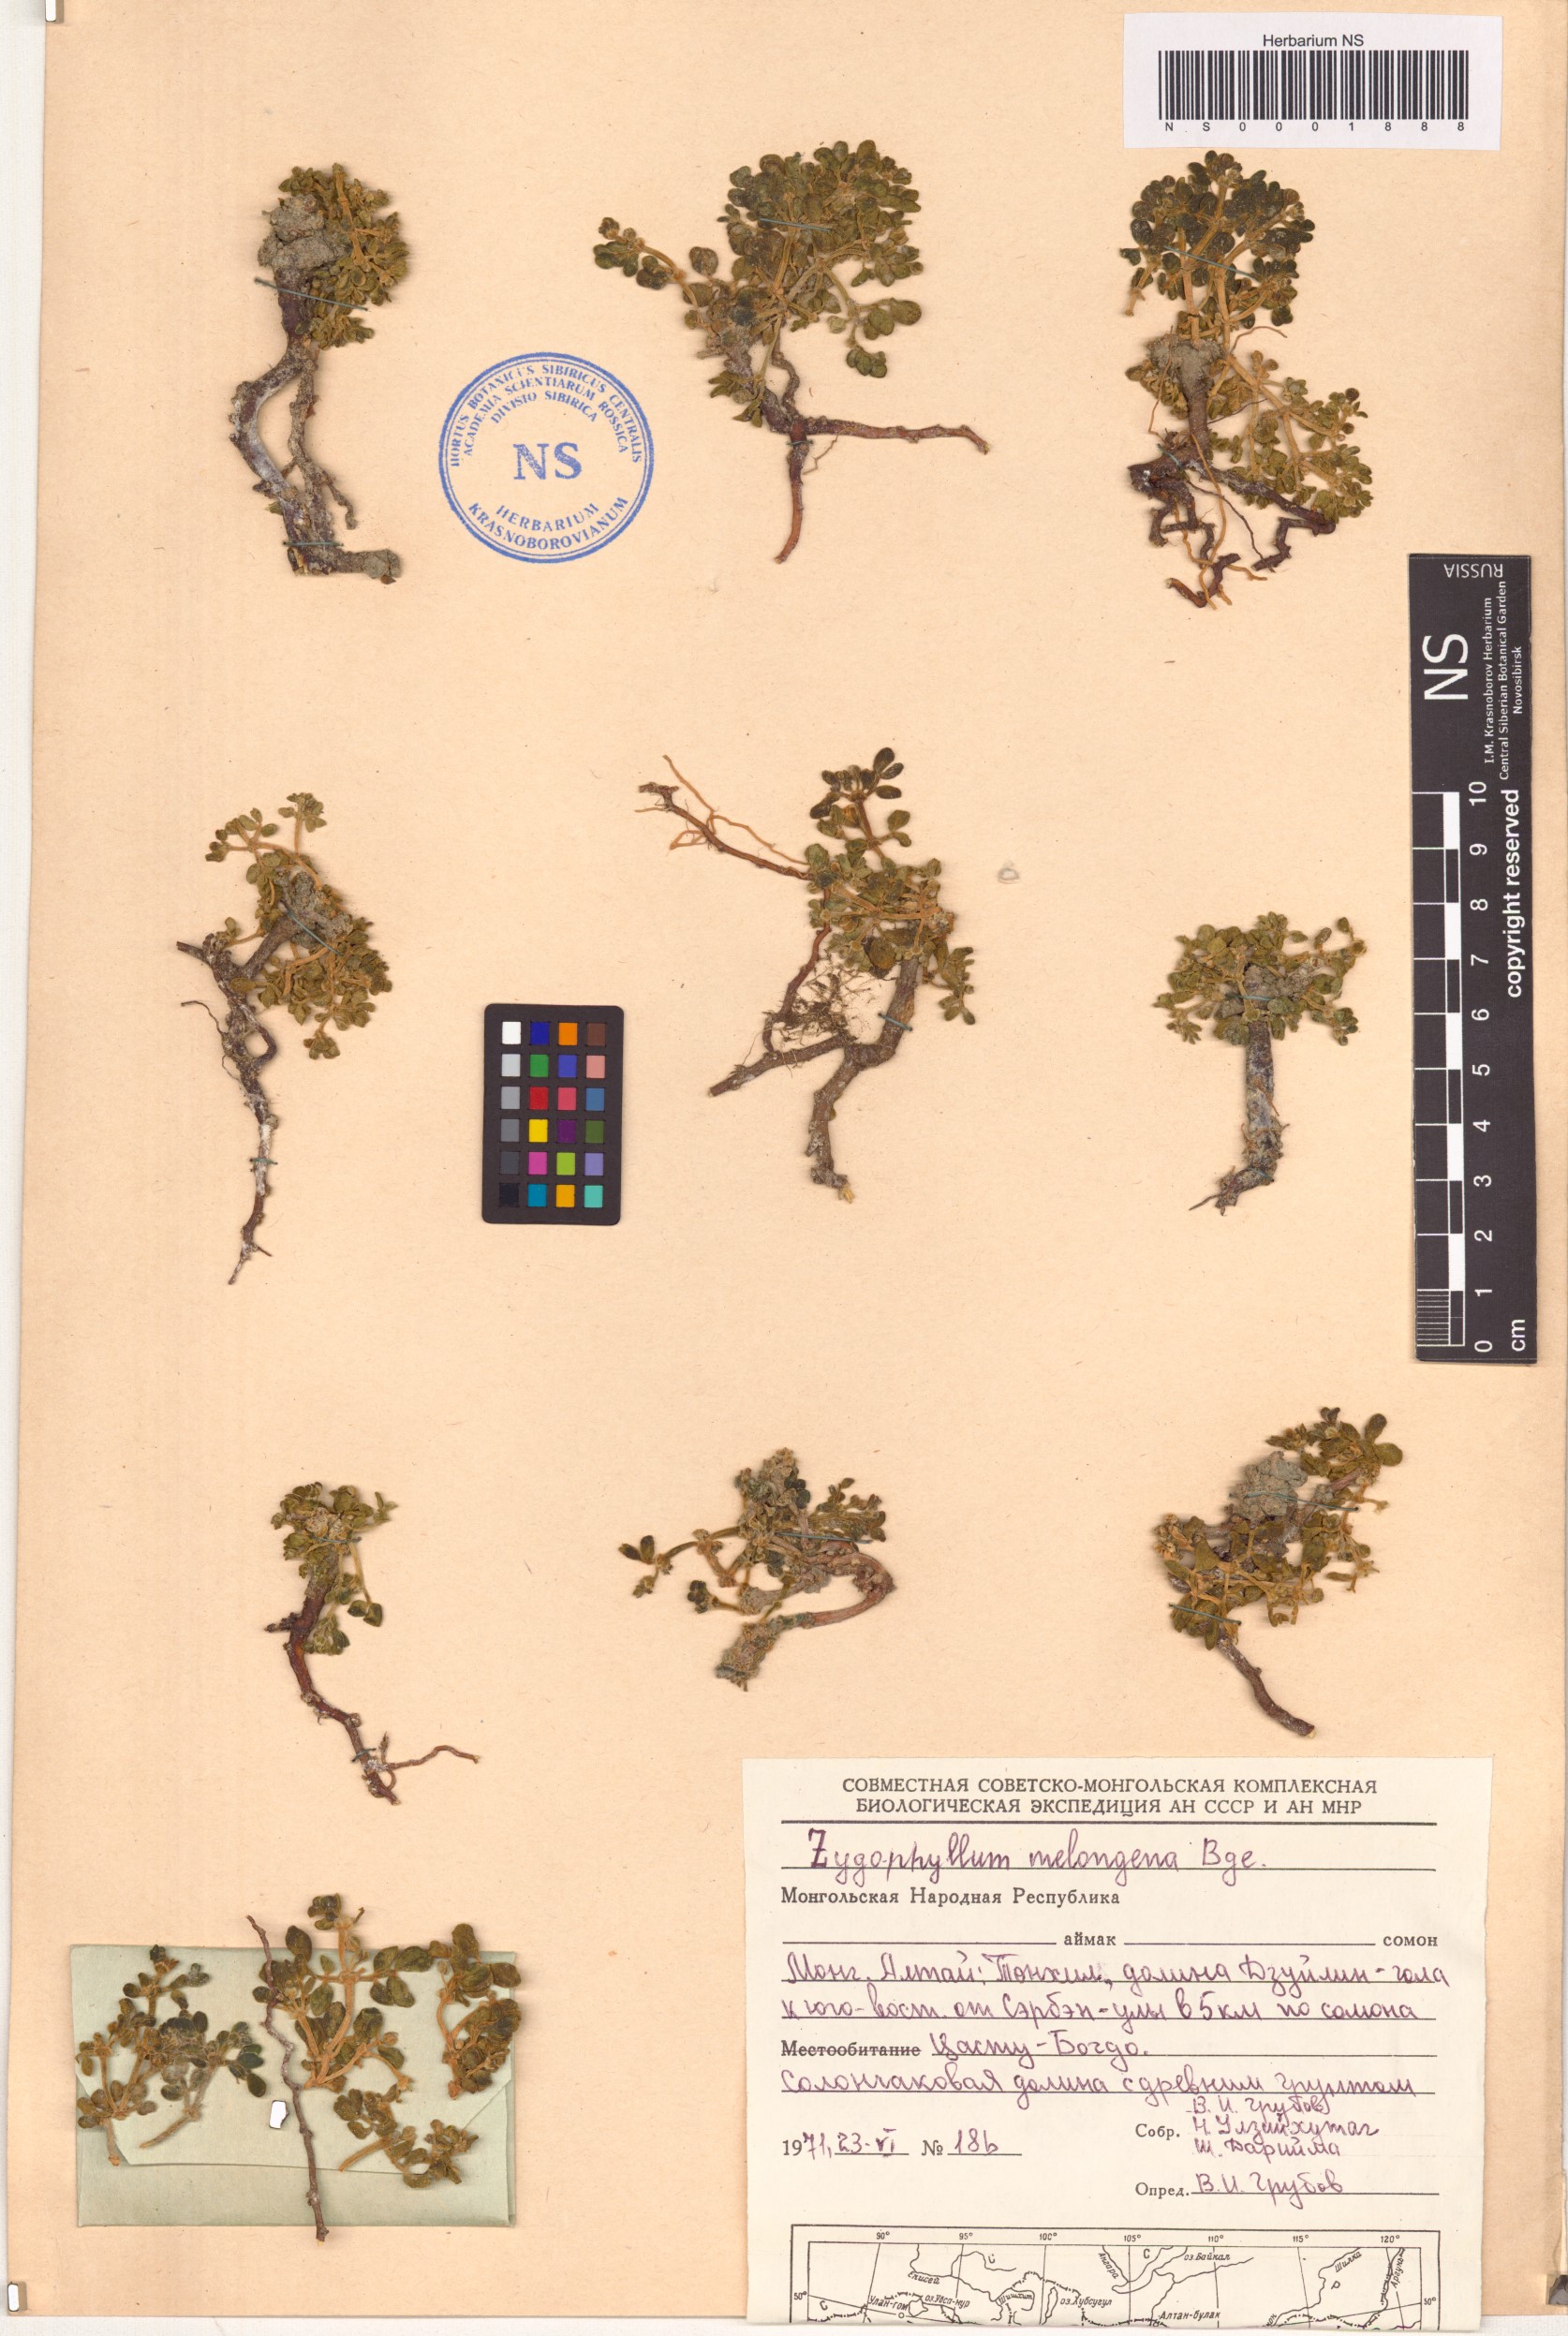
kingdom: Plantae
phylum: Tracheophyta
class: Magnoliopsida
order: Zygophyllales
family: Zygophyllaceae
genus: Zygophyllum
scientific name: Zygophyllum melongena
